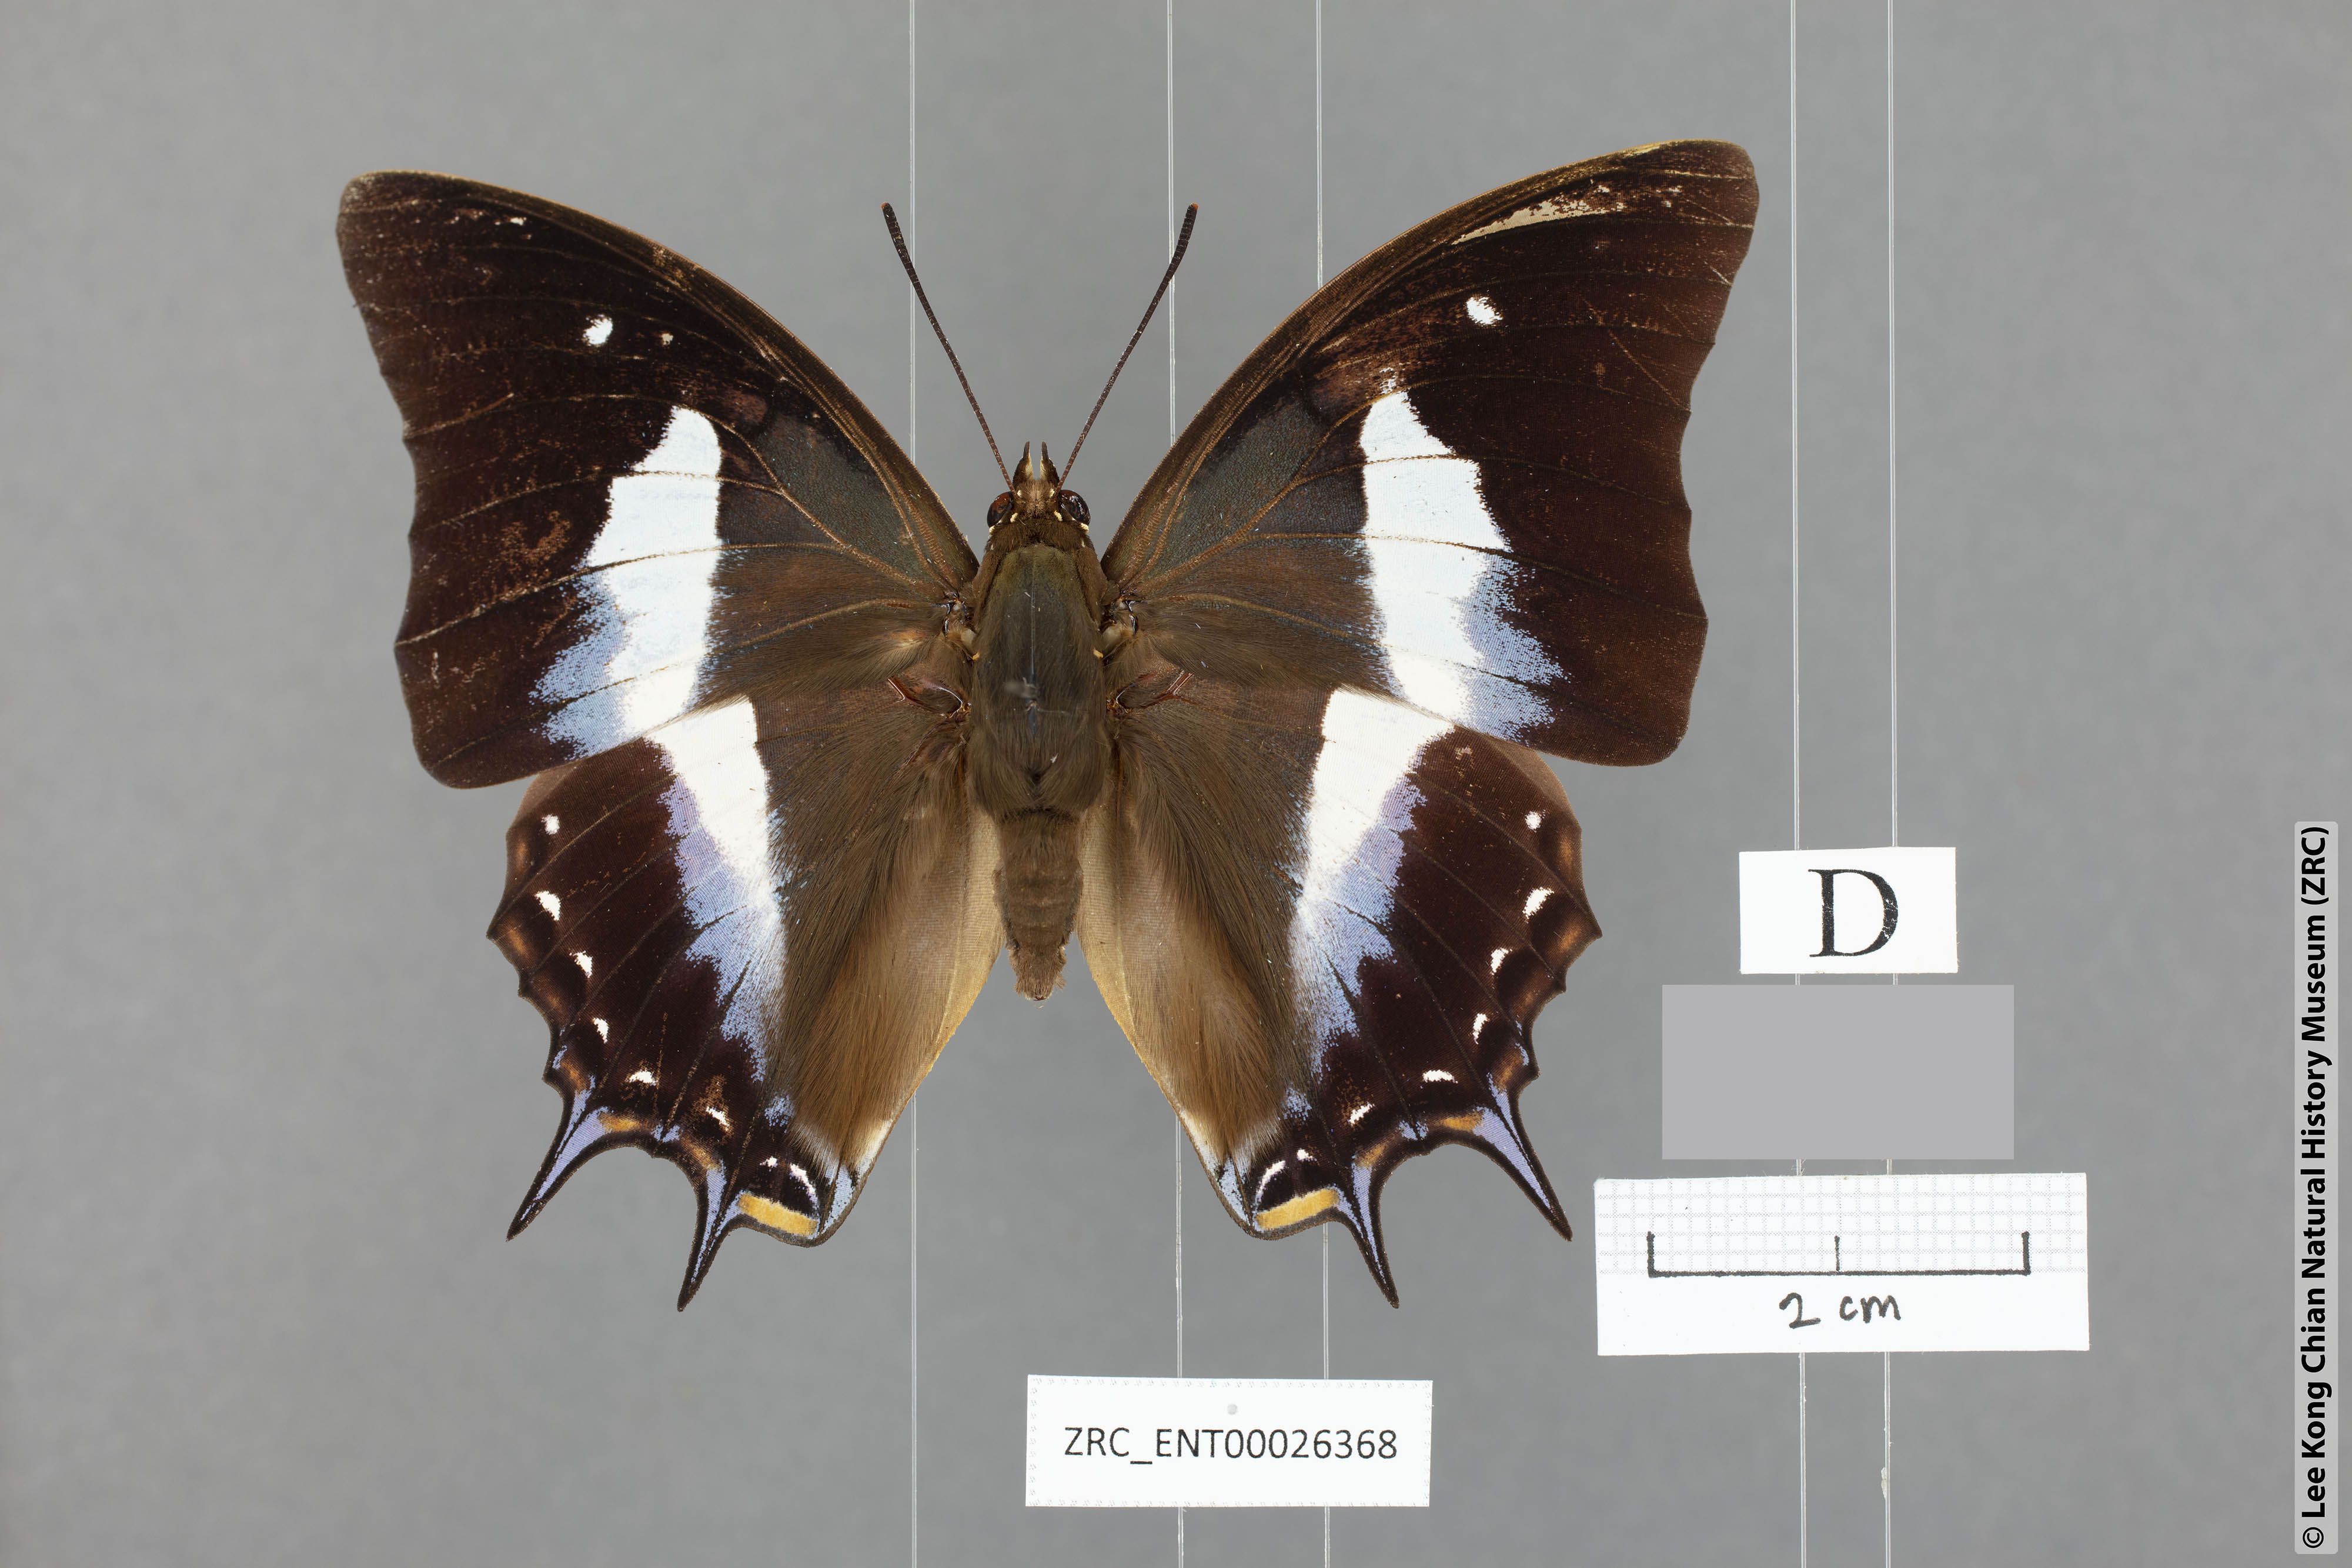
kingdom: Animalia
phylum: Arthropoda
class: Insecta
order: Lepidoptera
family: Nymphalidae
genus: Polyura
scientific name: Polyura schreiberi
